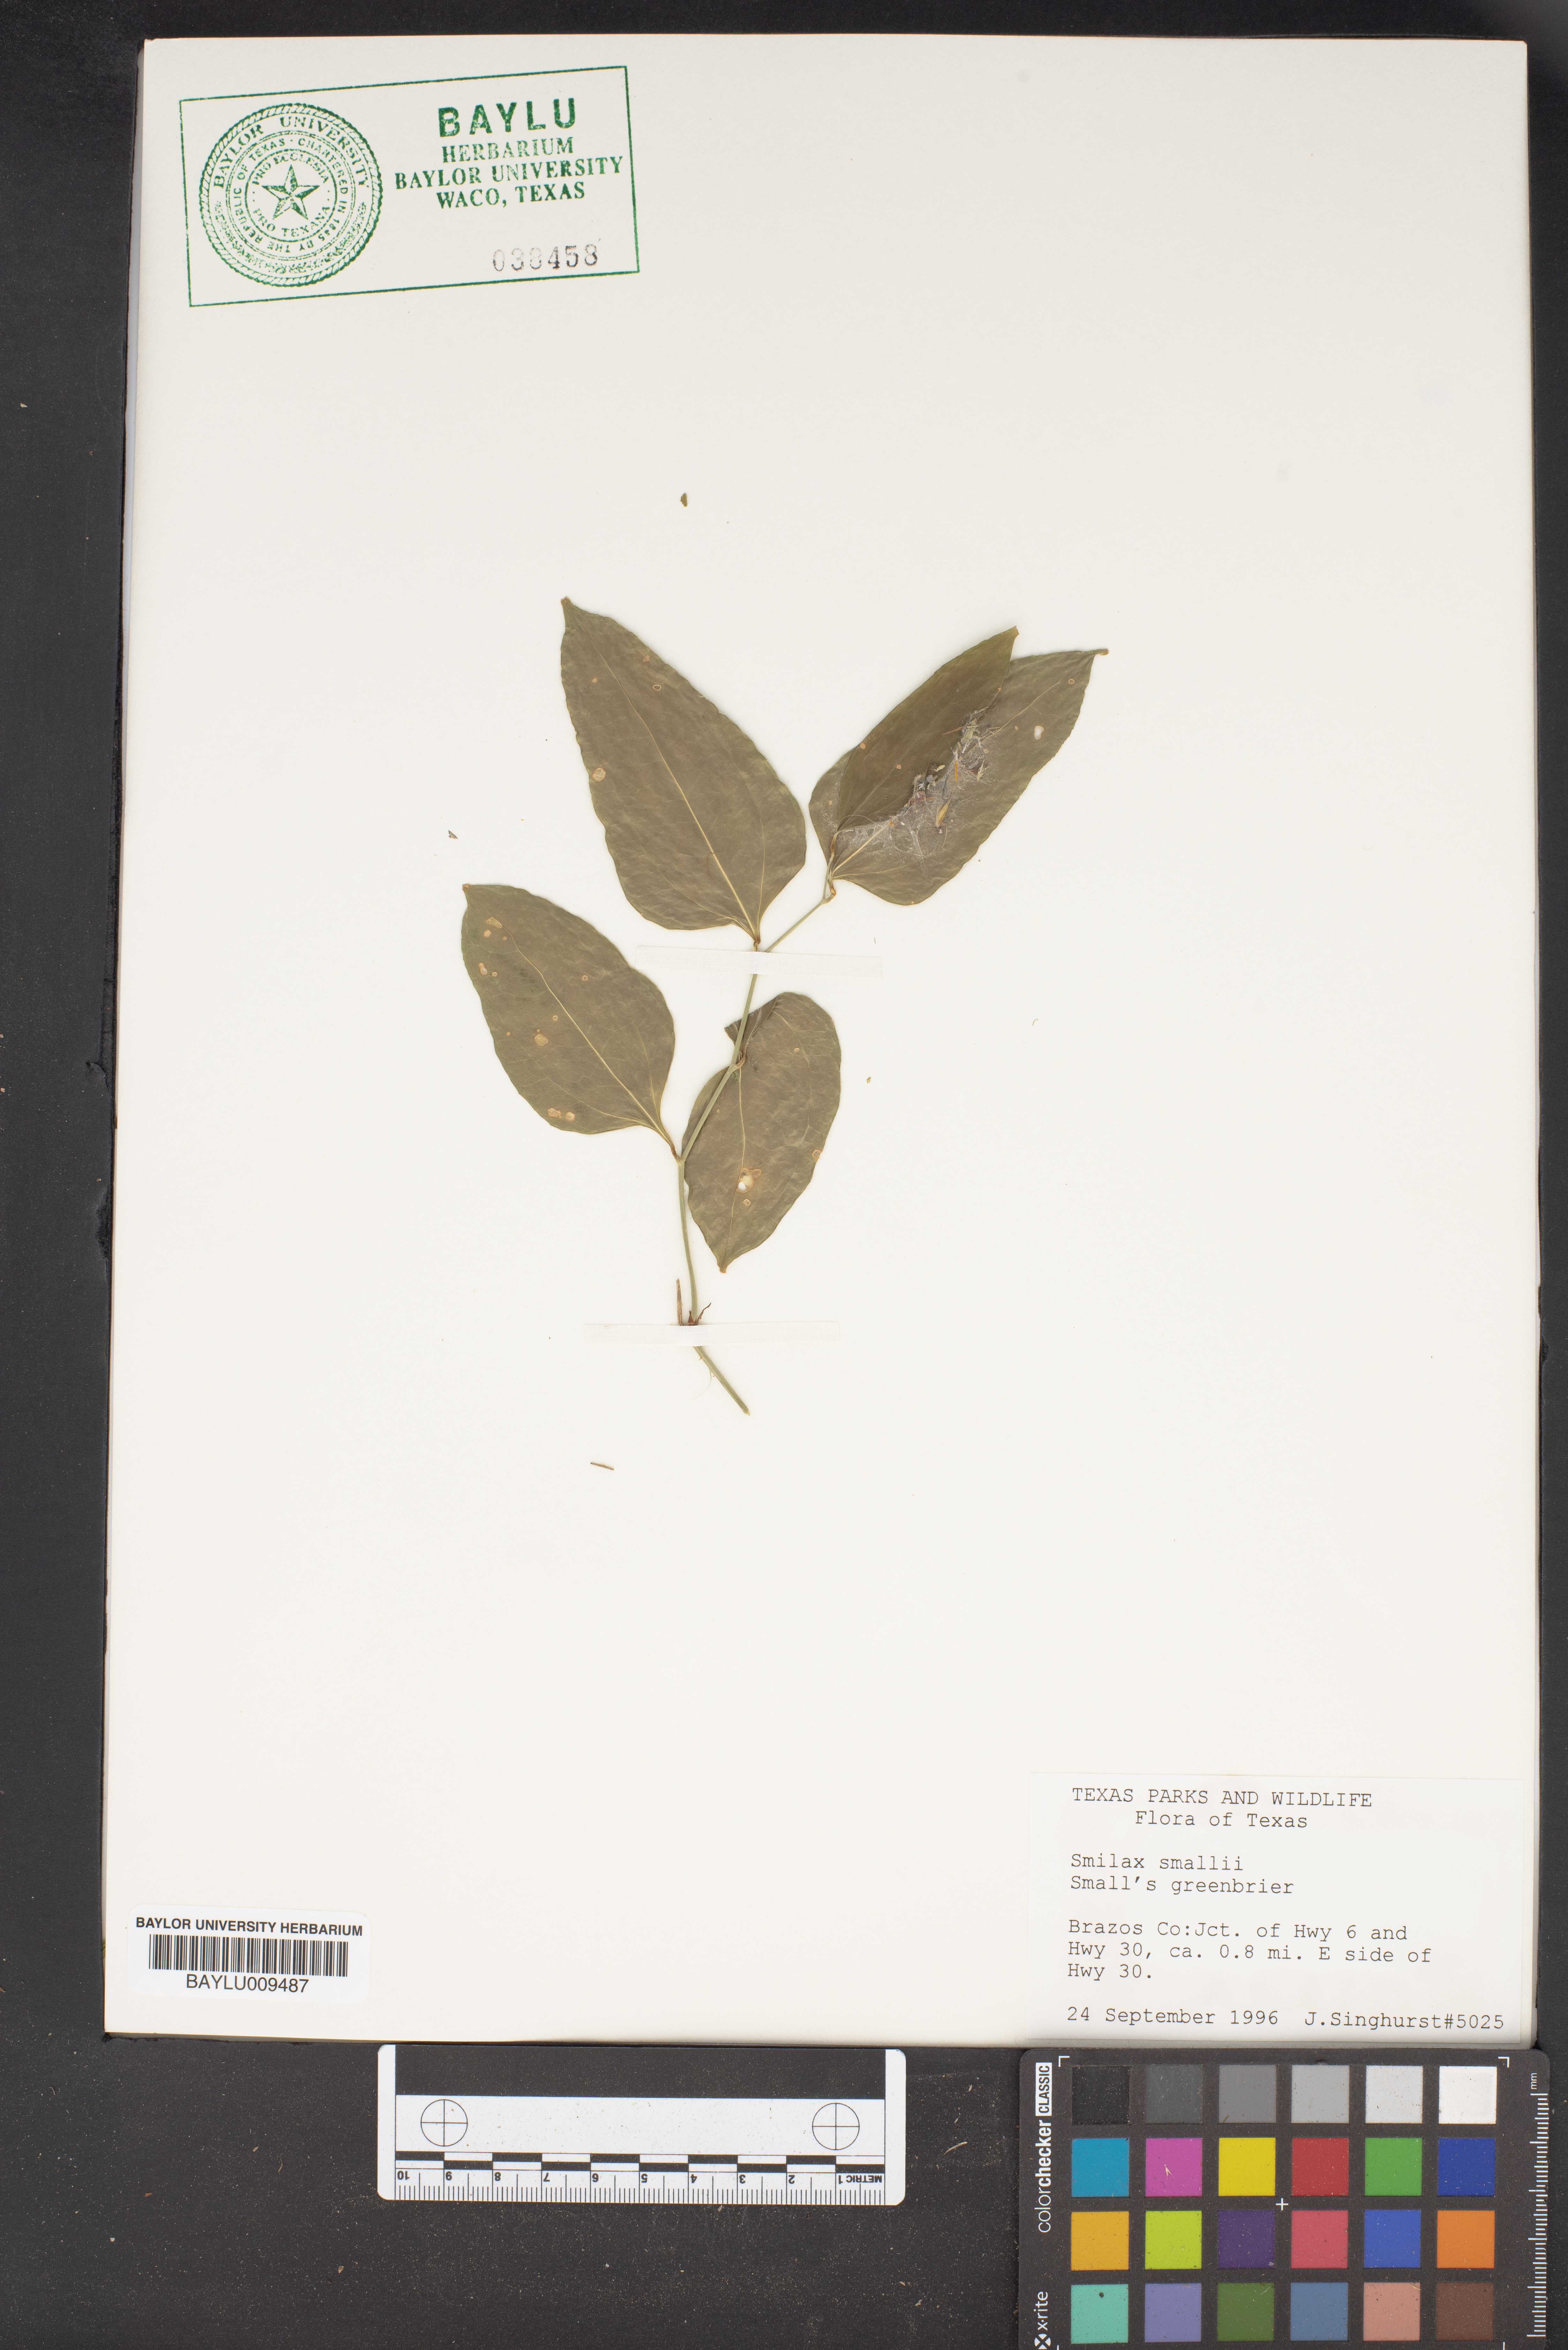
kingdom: Plantae
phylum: Tracheophyta
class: Liliopsida
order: Liliales
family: Smilacaceae
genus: Smilax
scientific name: Smilax maritima
